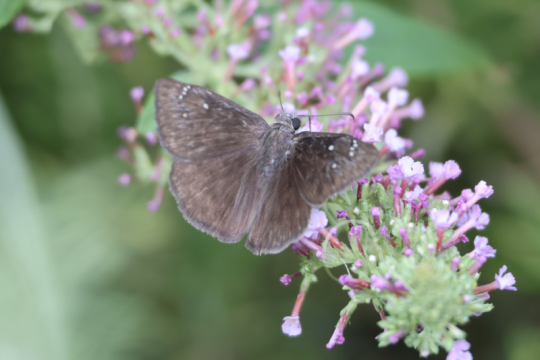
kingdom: Animalia
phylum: Arthropoda
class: Insecta
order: Lepidoptera
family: Hesperiidae
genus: Erynnis
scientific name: Erynnis meridianus
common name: Meridian Duskywing
